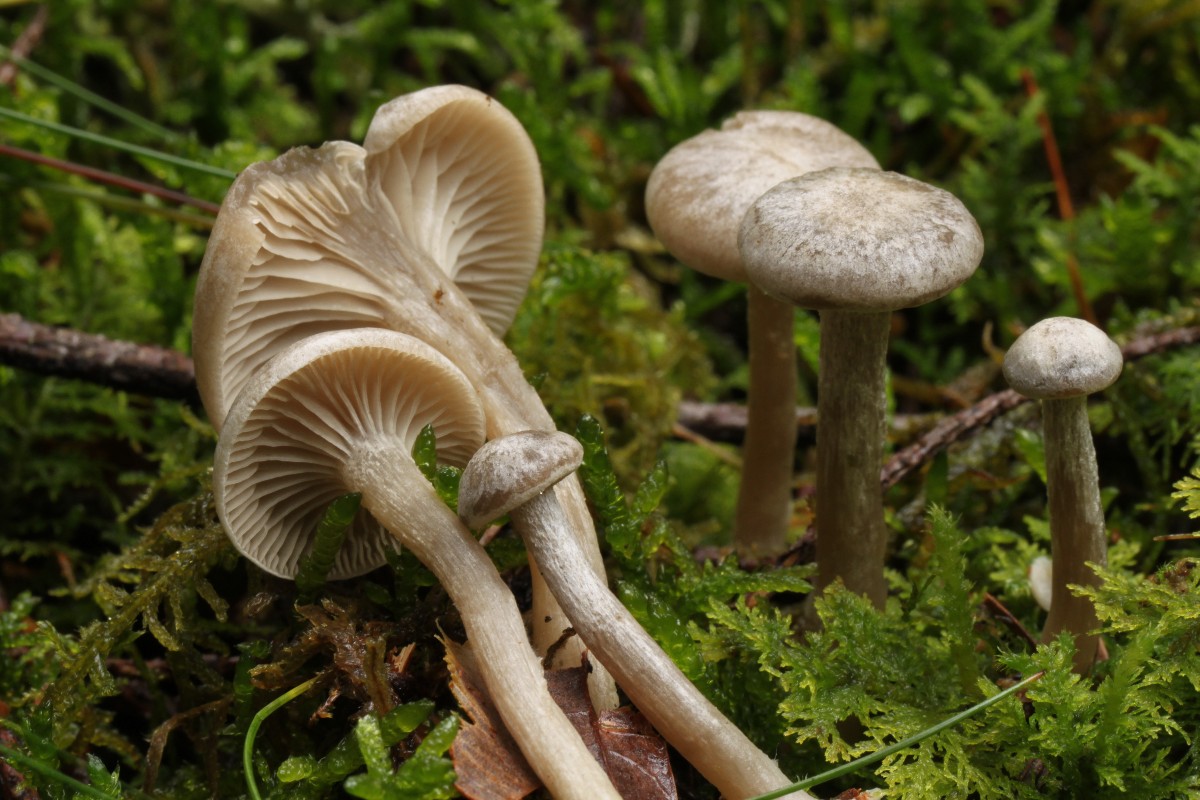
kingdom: Fungi
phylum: Basidiomycota
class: Agaricomycetes
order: Agaricales
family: Tricholomataceae
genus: Clitocybe
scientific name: Clitocybe vibecina
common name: randstribet tragthat
